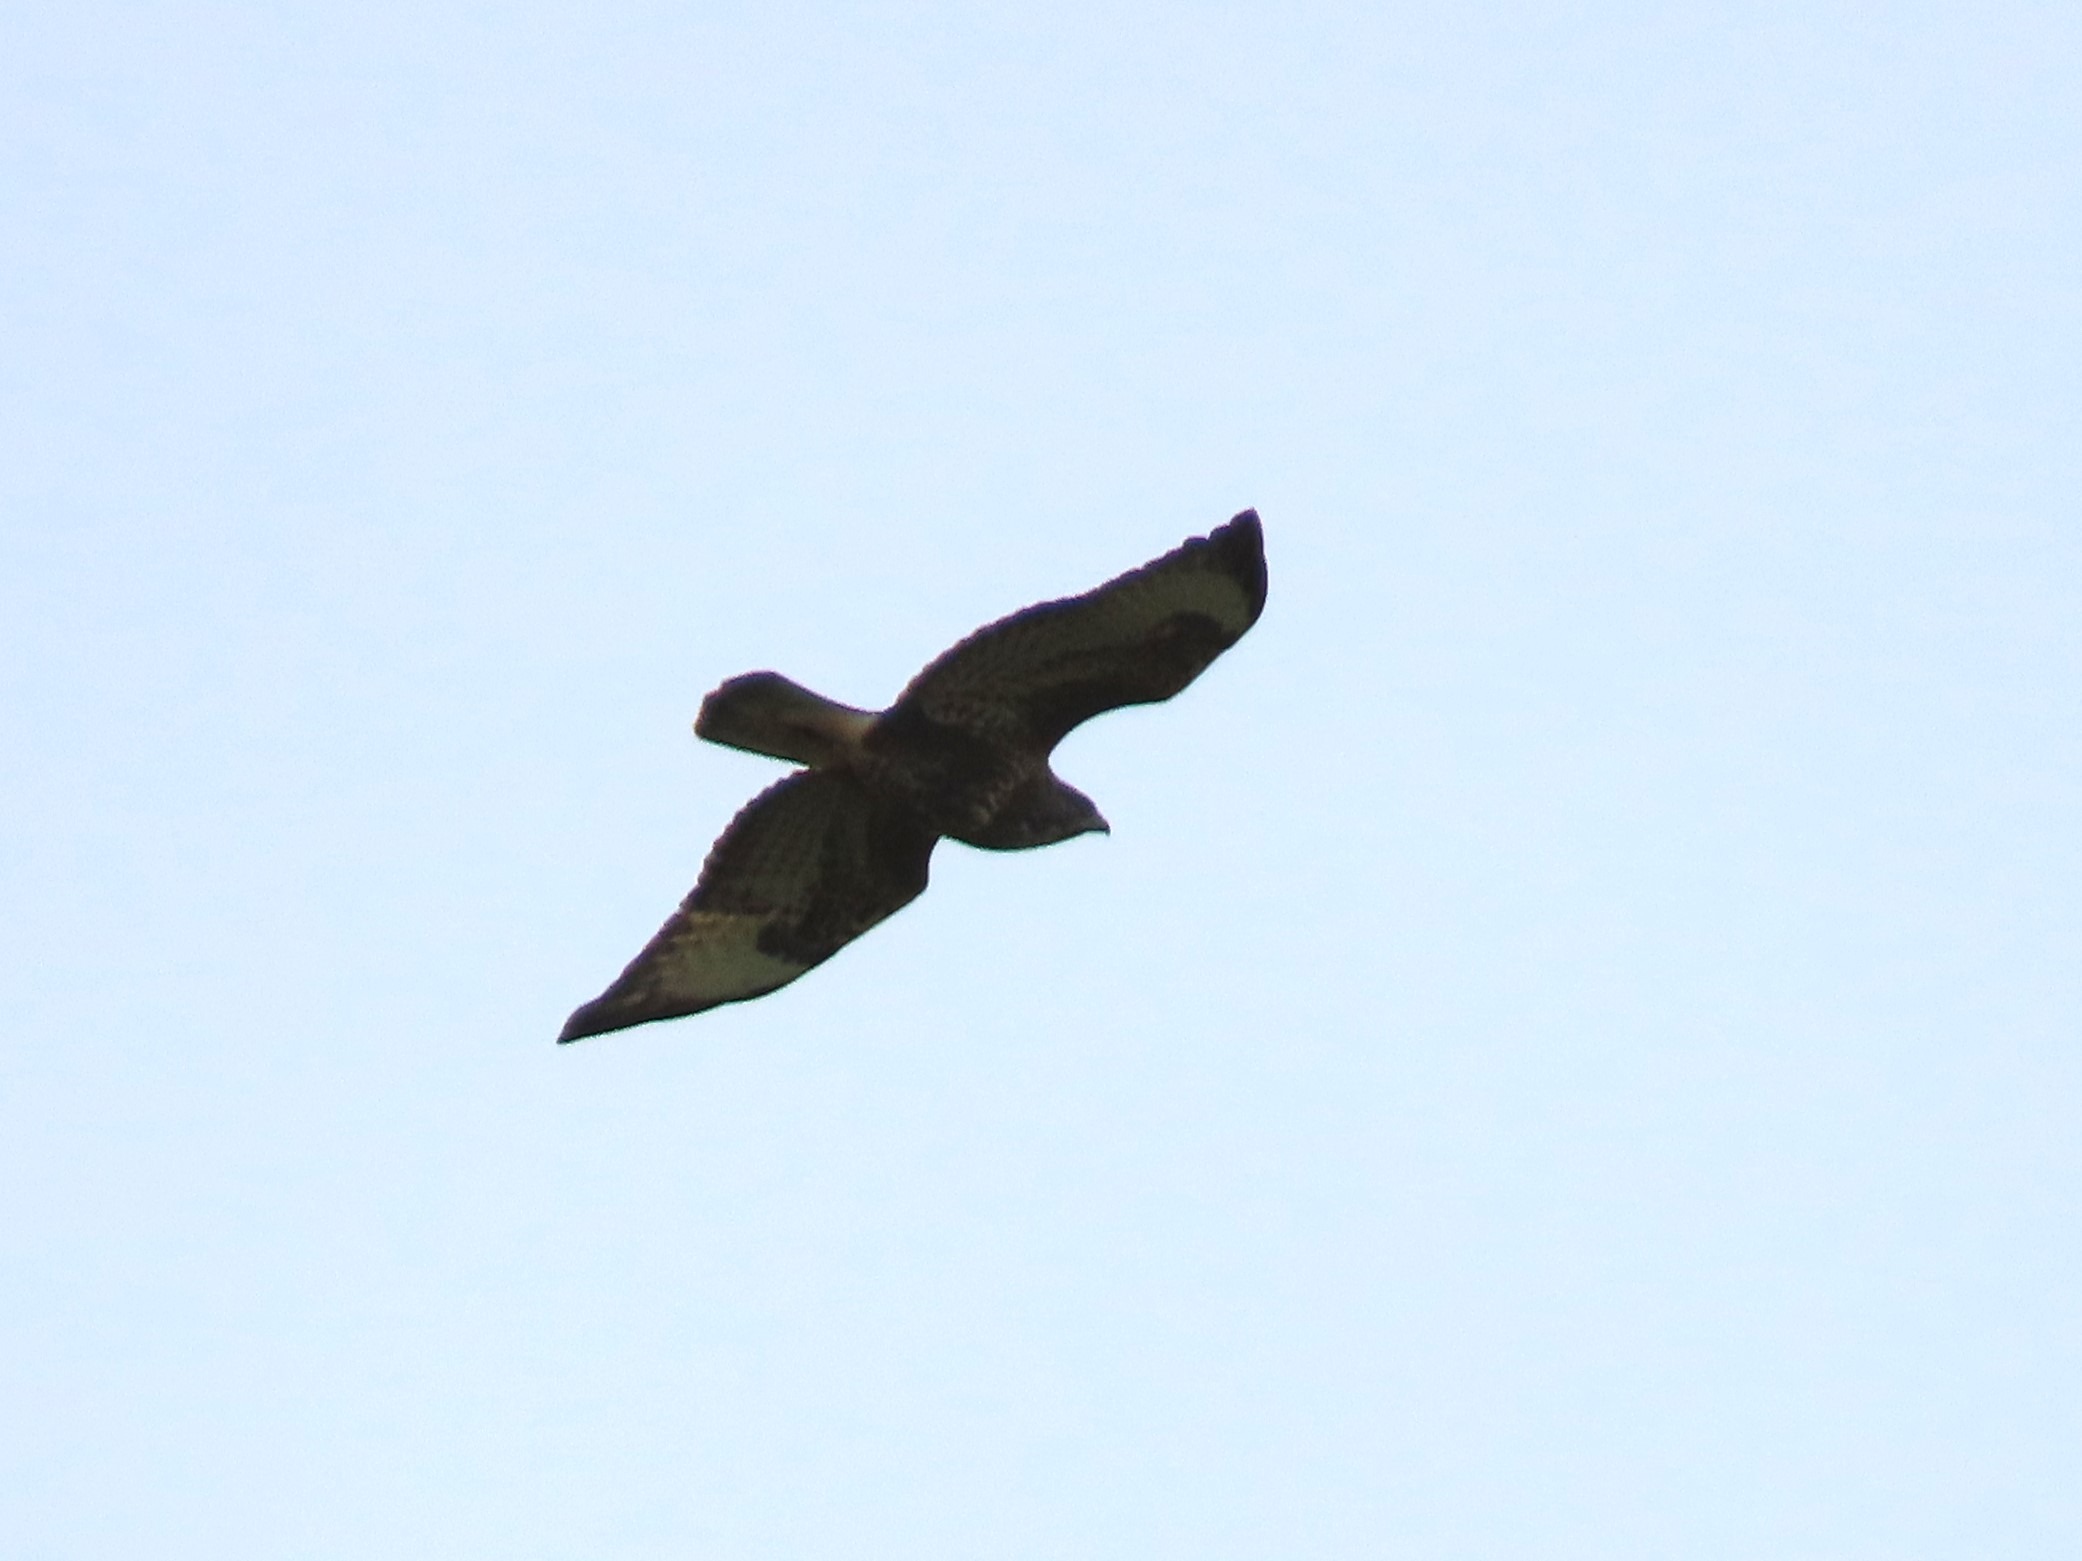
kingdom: Animalia
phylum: Chordata
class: Aves
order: Accipitriformes
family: Accipitridae
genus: Buteo
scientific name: Buteo buteo
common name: Musvåge
